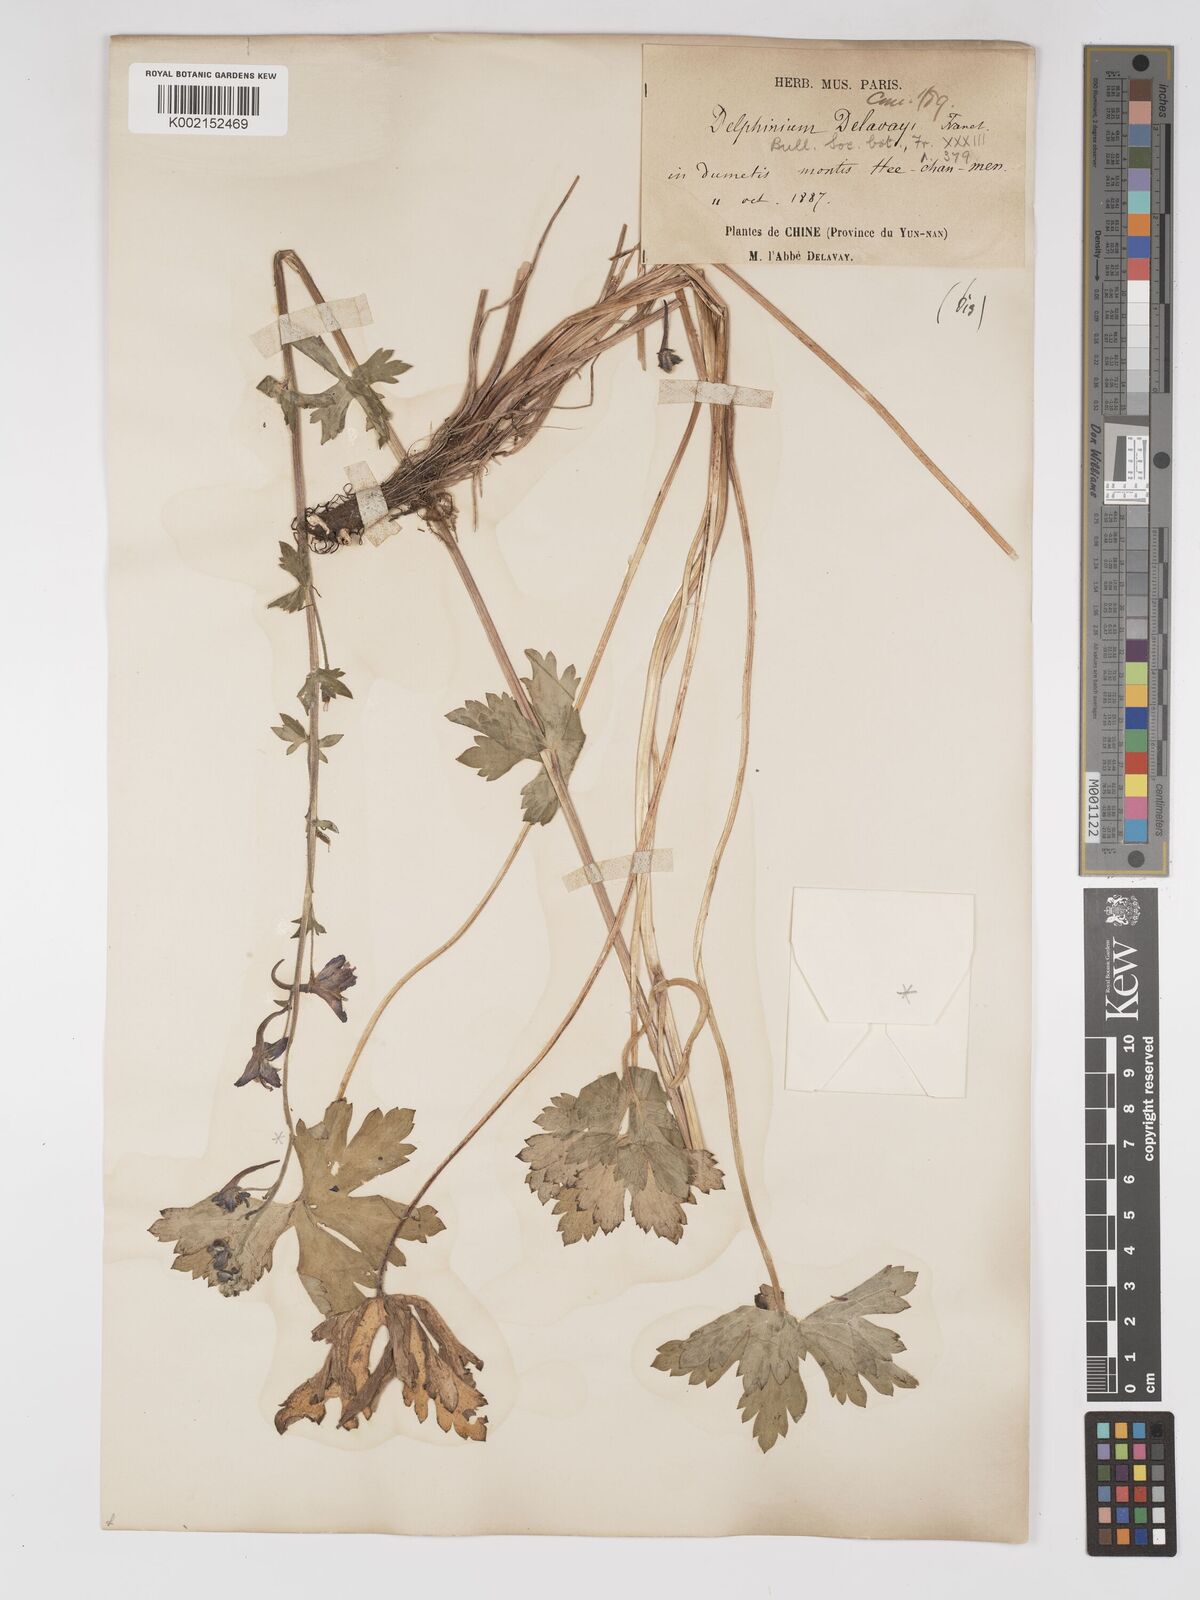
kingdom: Plantae
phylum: Tracheophyta
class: Magnoliopsida
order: Ranunculales
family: Ranunculaceae
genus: Delphinium
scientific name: Delphinium delavayi
